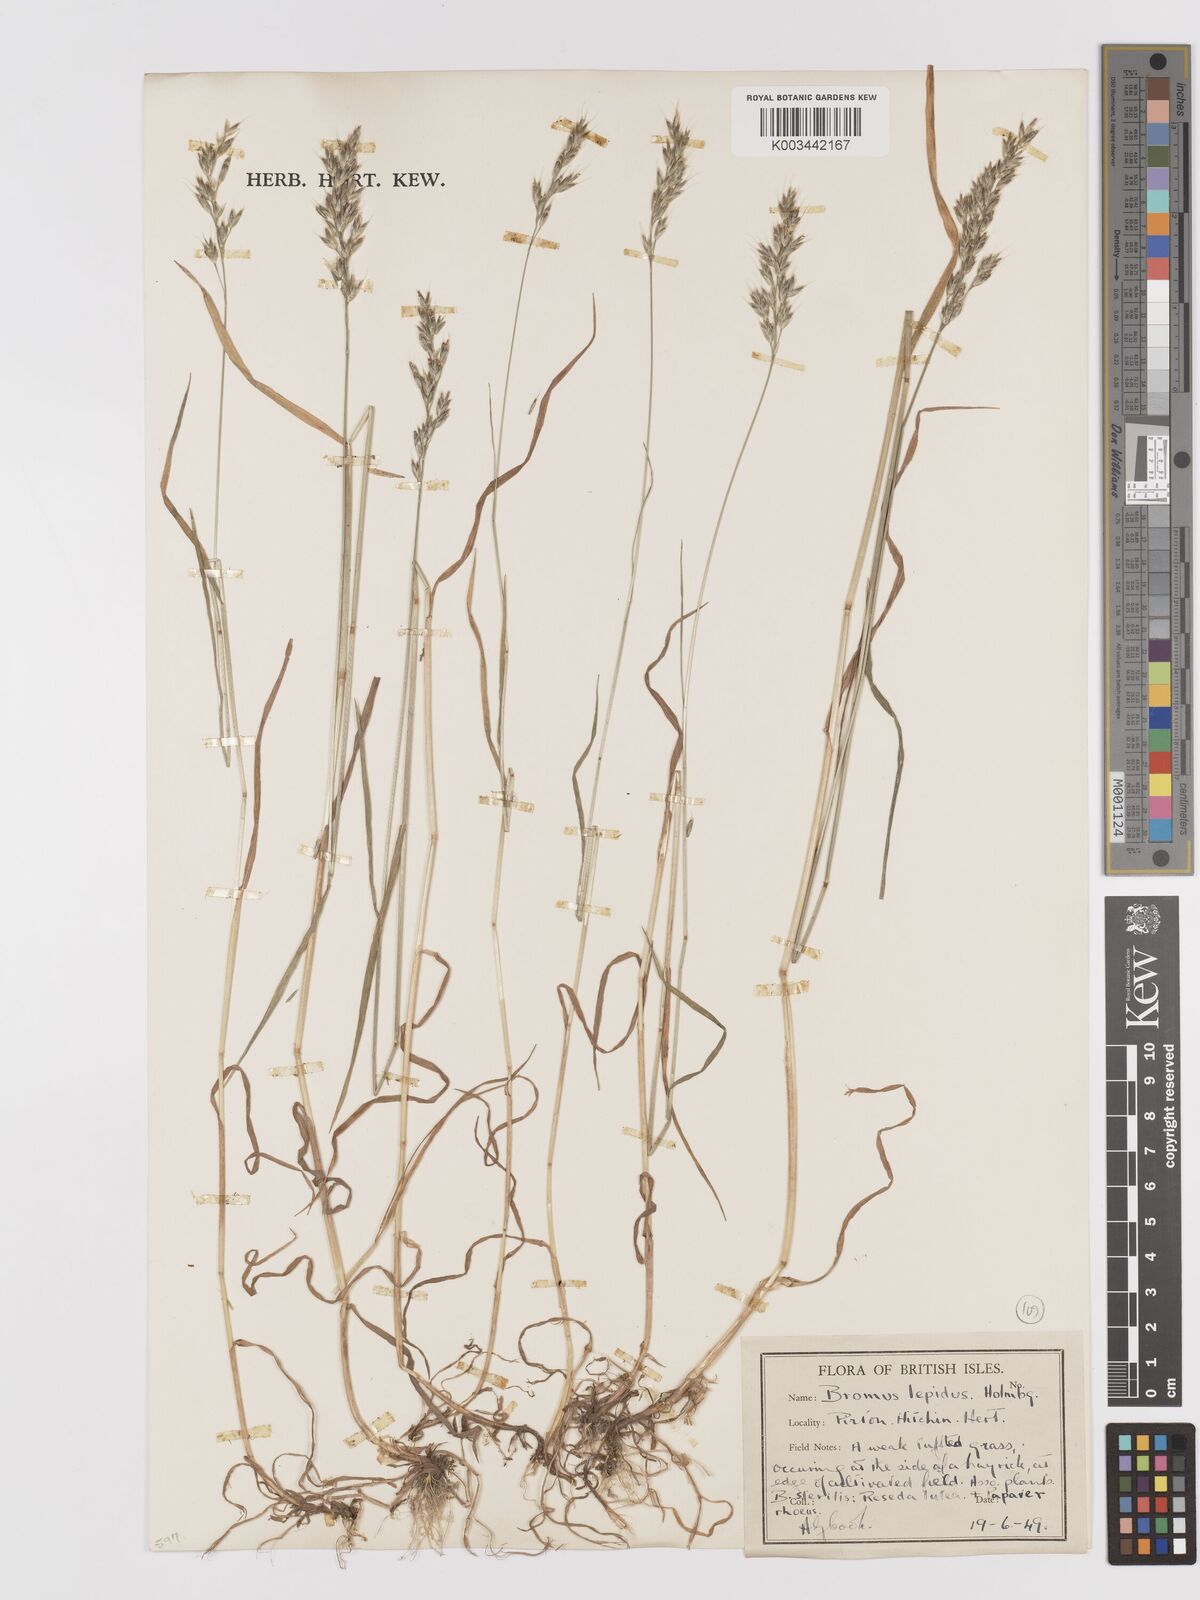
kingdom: Plantae
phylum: Tracheophyta
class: Liliopsida
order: Poales
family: Poaceae
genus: Bromus
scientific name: Bromus lepidus
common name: Slender soft-brome
